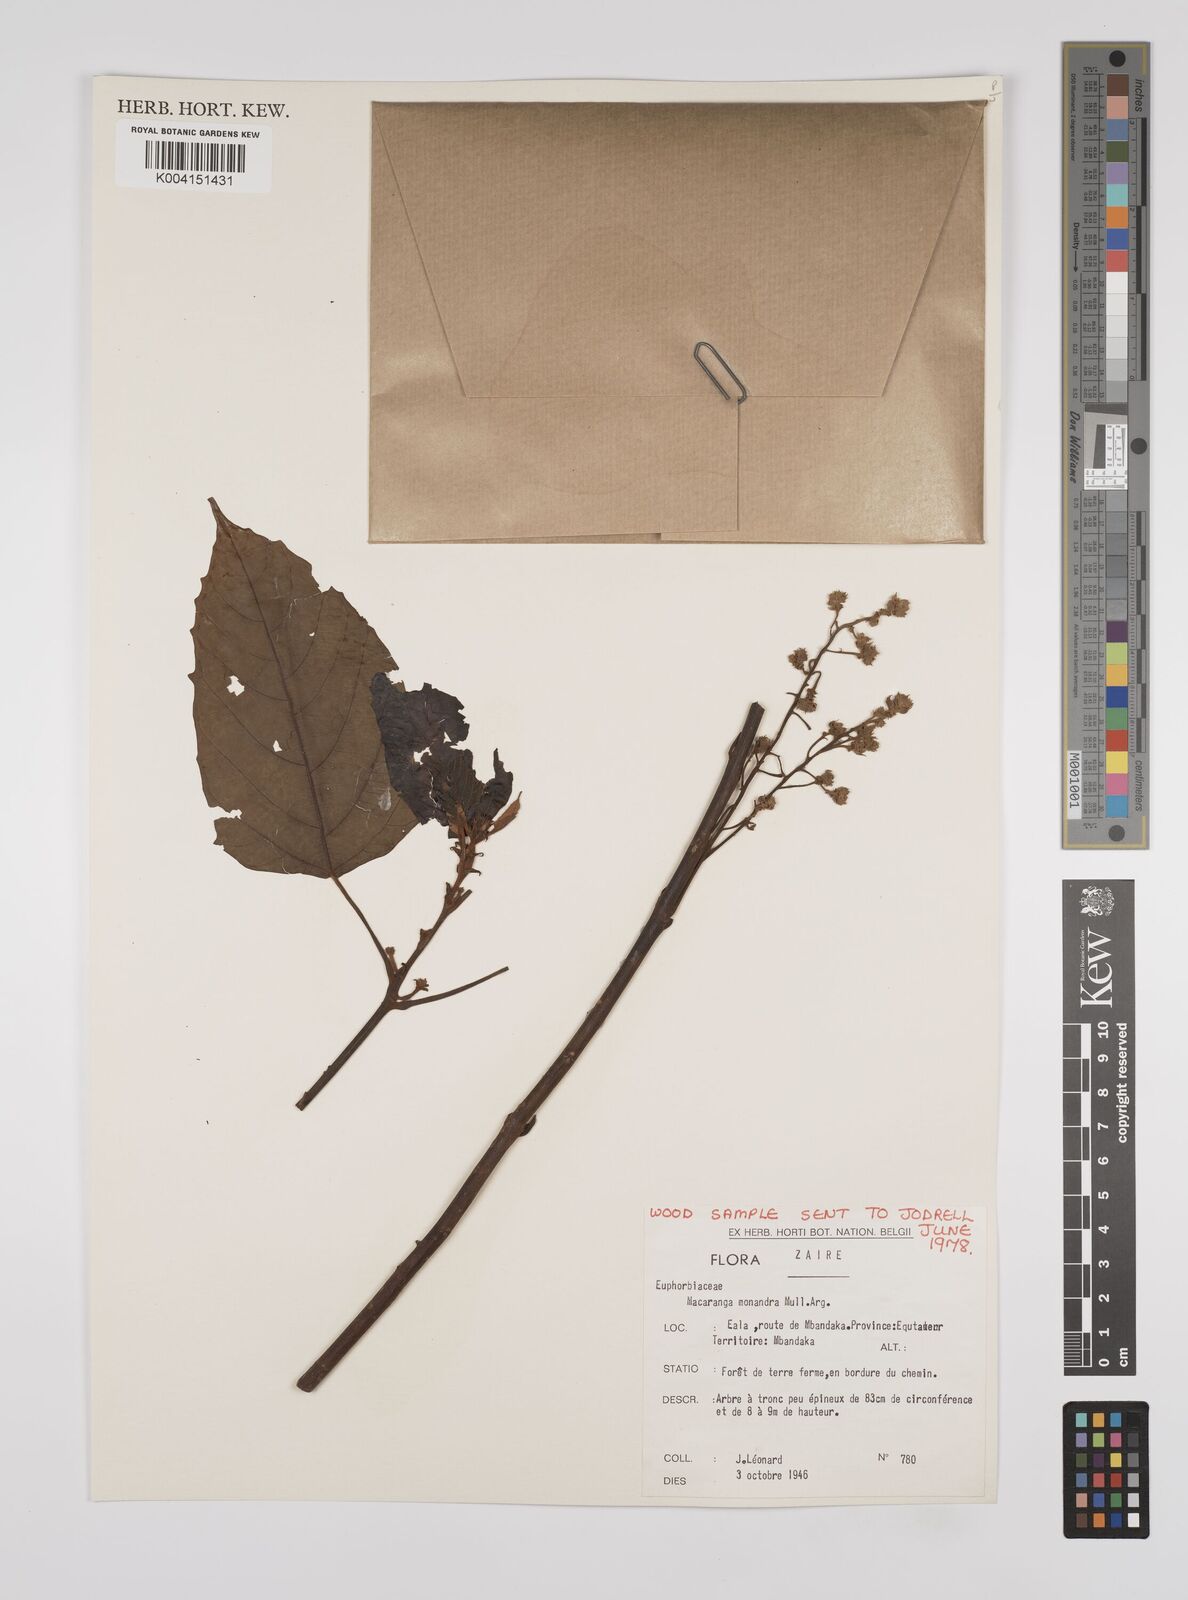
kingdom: Plantae
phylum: Tracheophyta
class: Magnoliopsida
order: Malpighiales
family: Euphorbiaceae
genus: Macaranga
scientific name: Macaranga monandra
